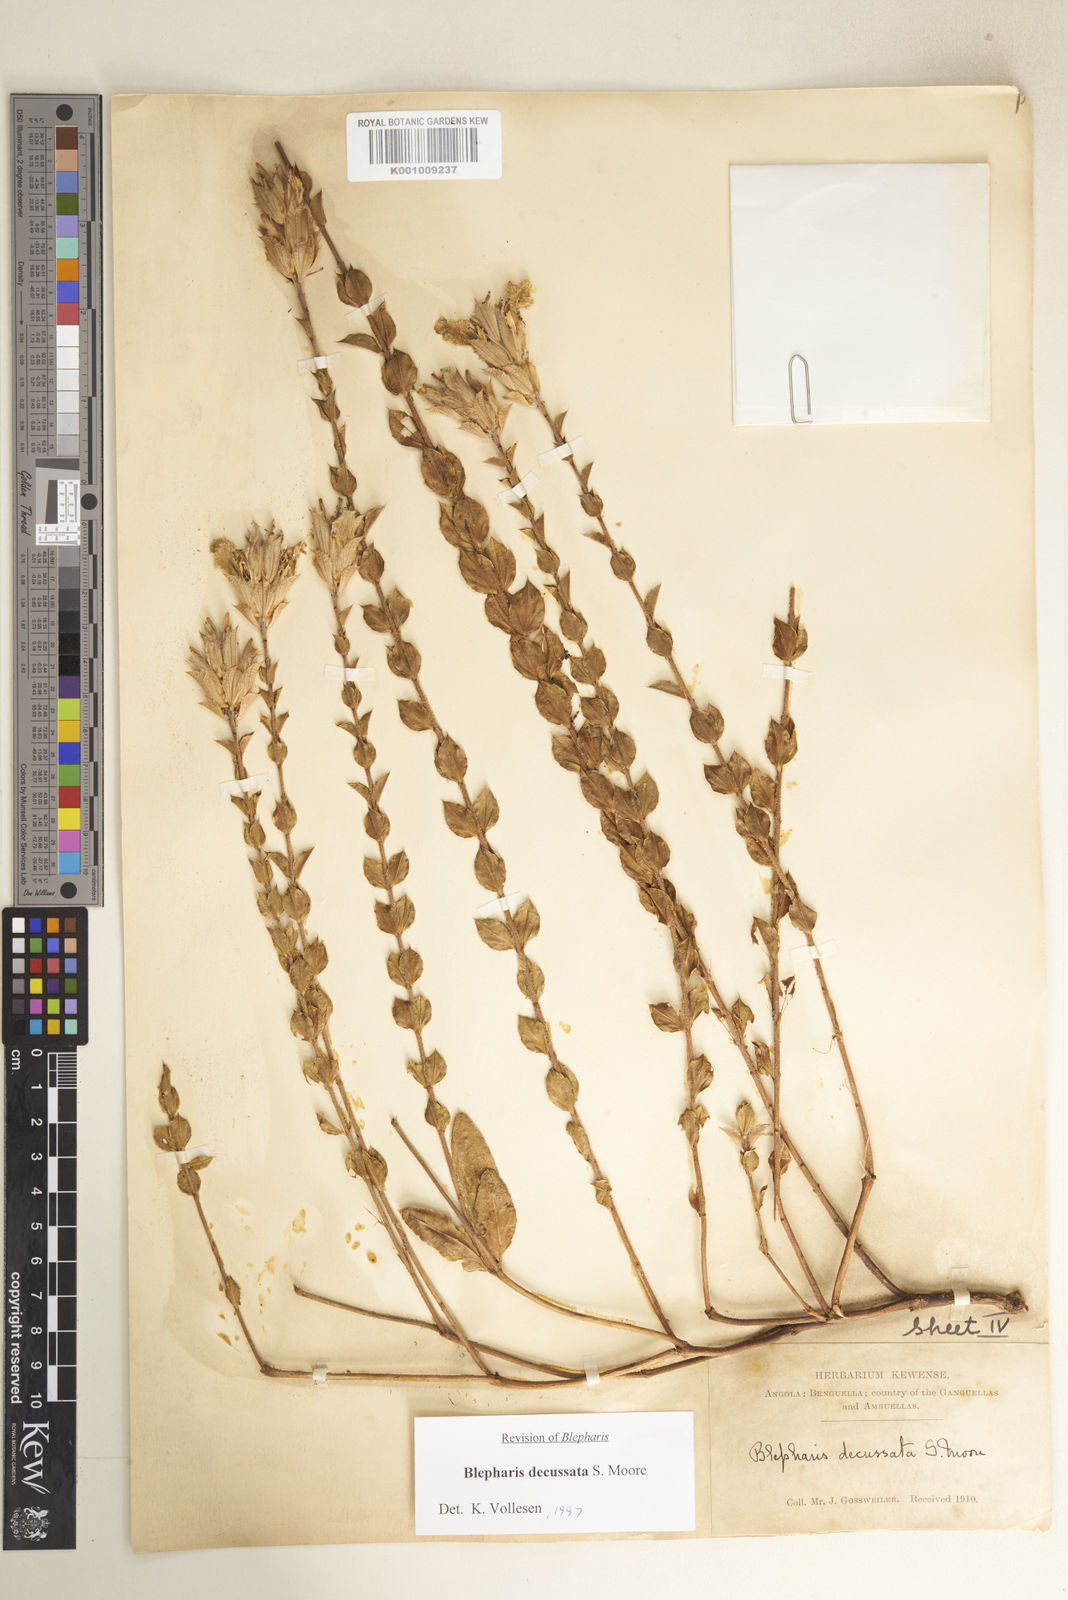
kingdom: Plantae
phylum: Tracheophyta
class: Magnoliopsida
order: Lamiales
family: Acanthaceae
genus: Blepharis
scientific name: Blepharis decussata
